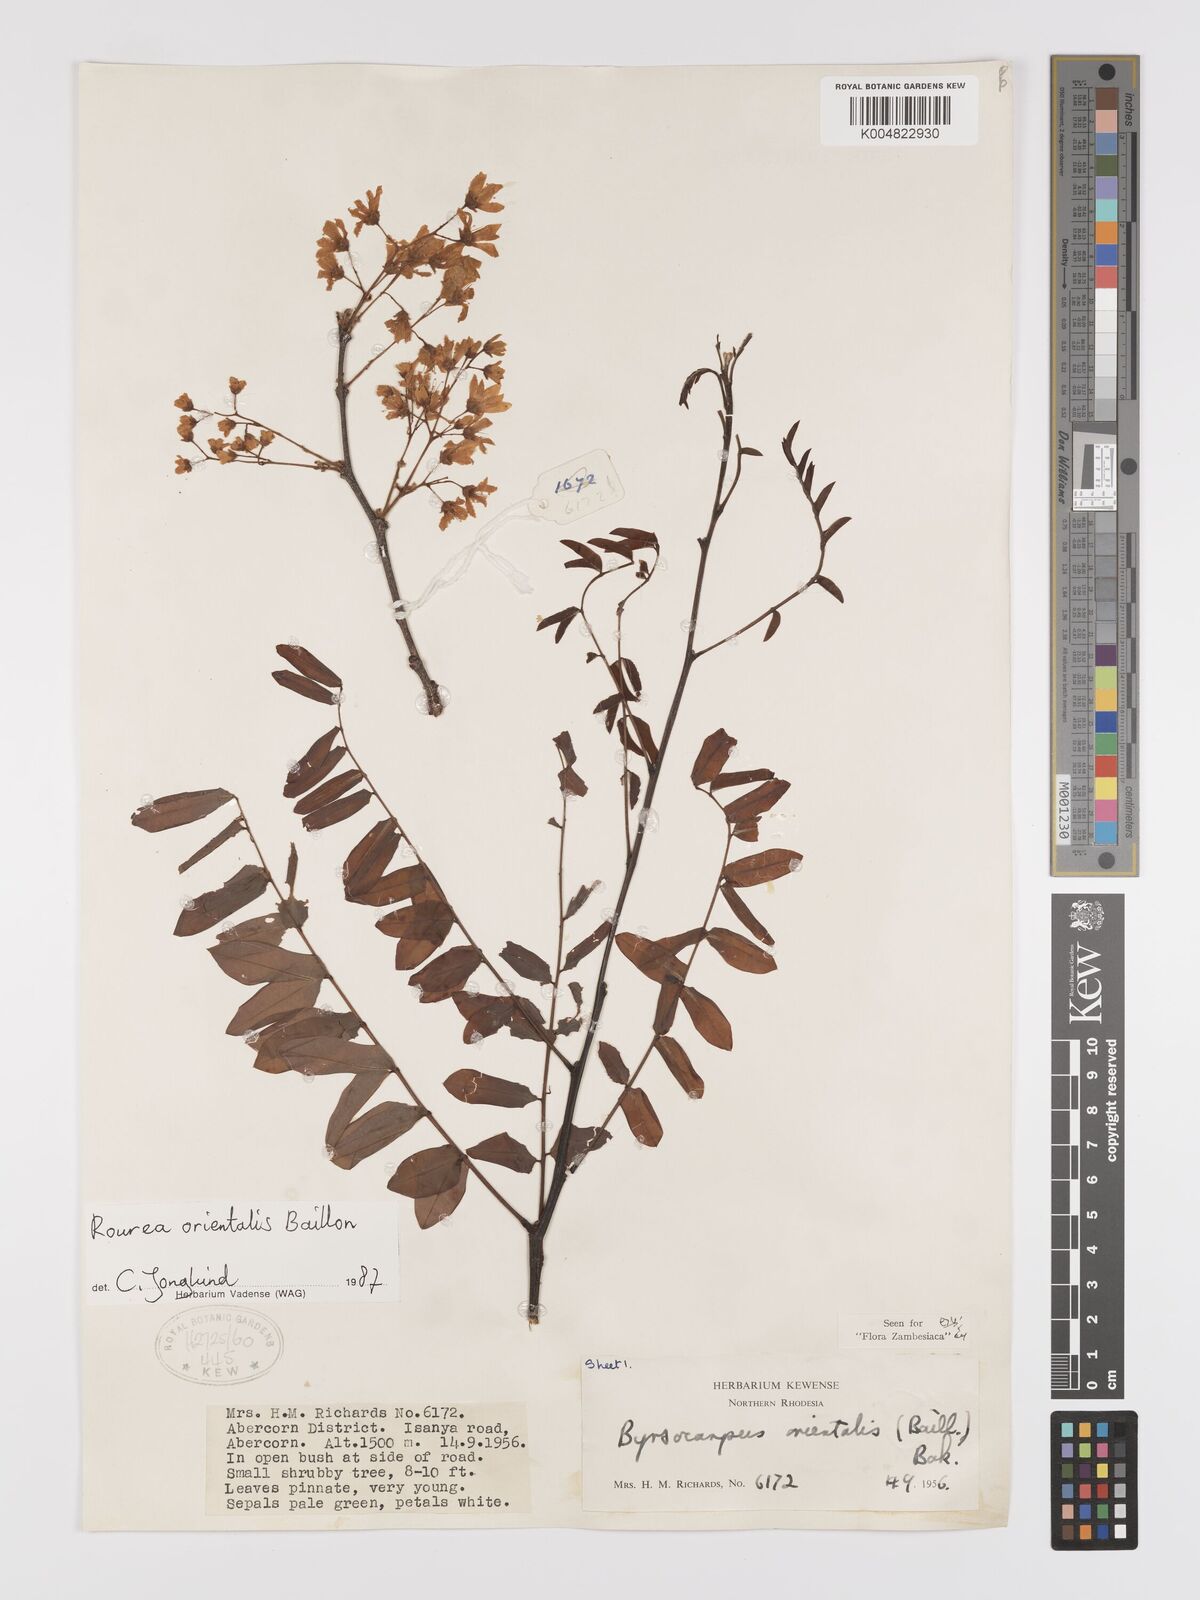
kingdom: Plantae
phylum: Tracheophyta
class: Magnoliopsida
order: Oxalidales
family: Connaraceae
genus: Rourea
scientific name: Rourea orientalis
